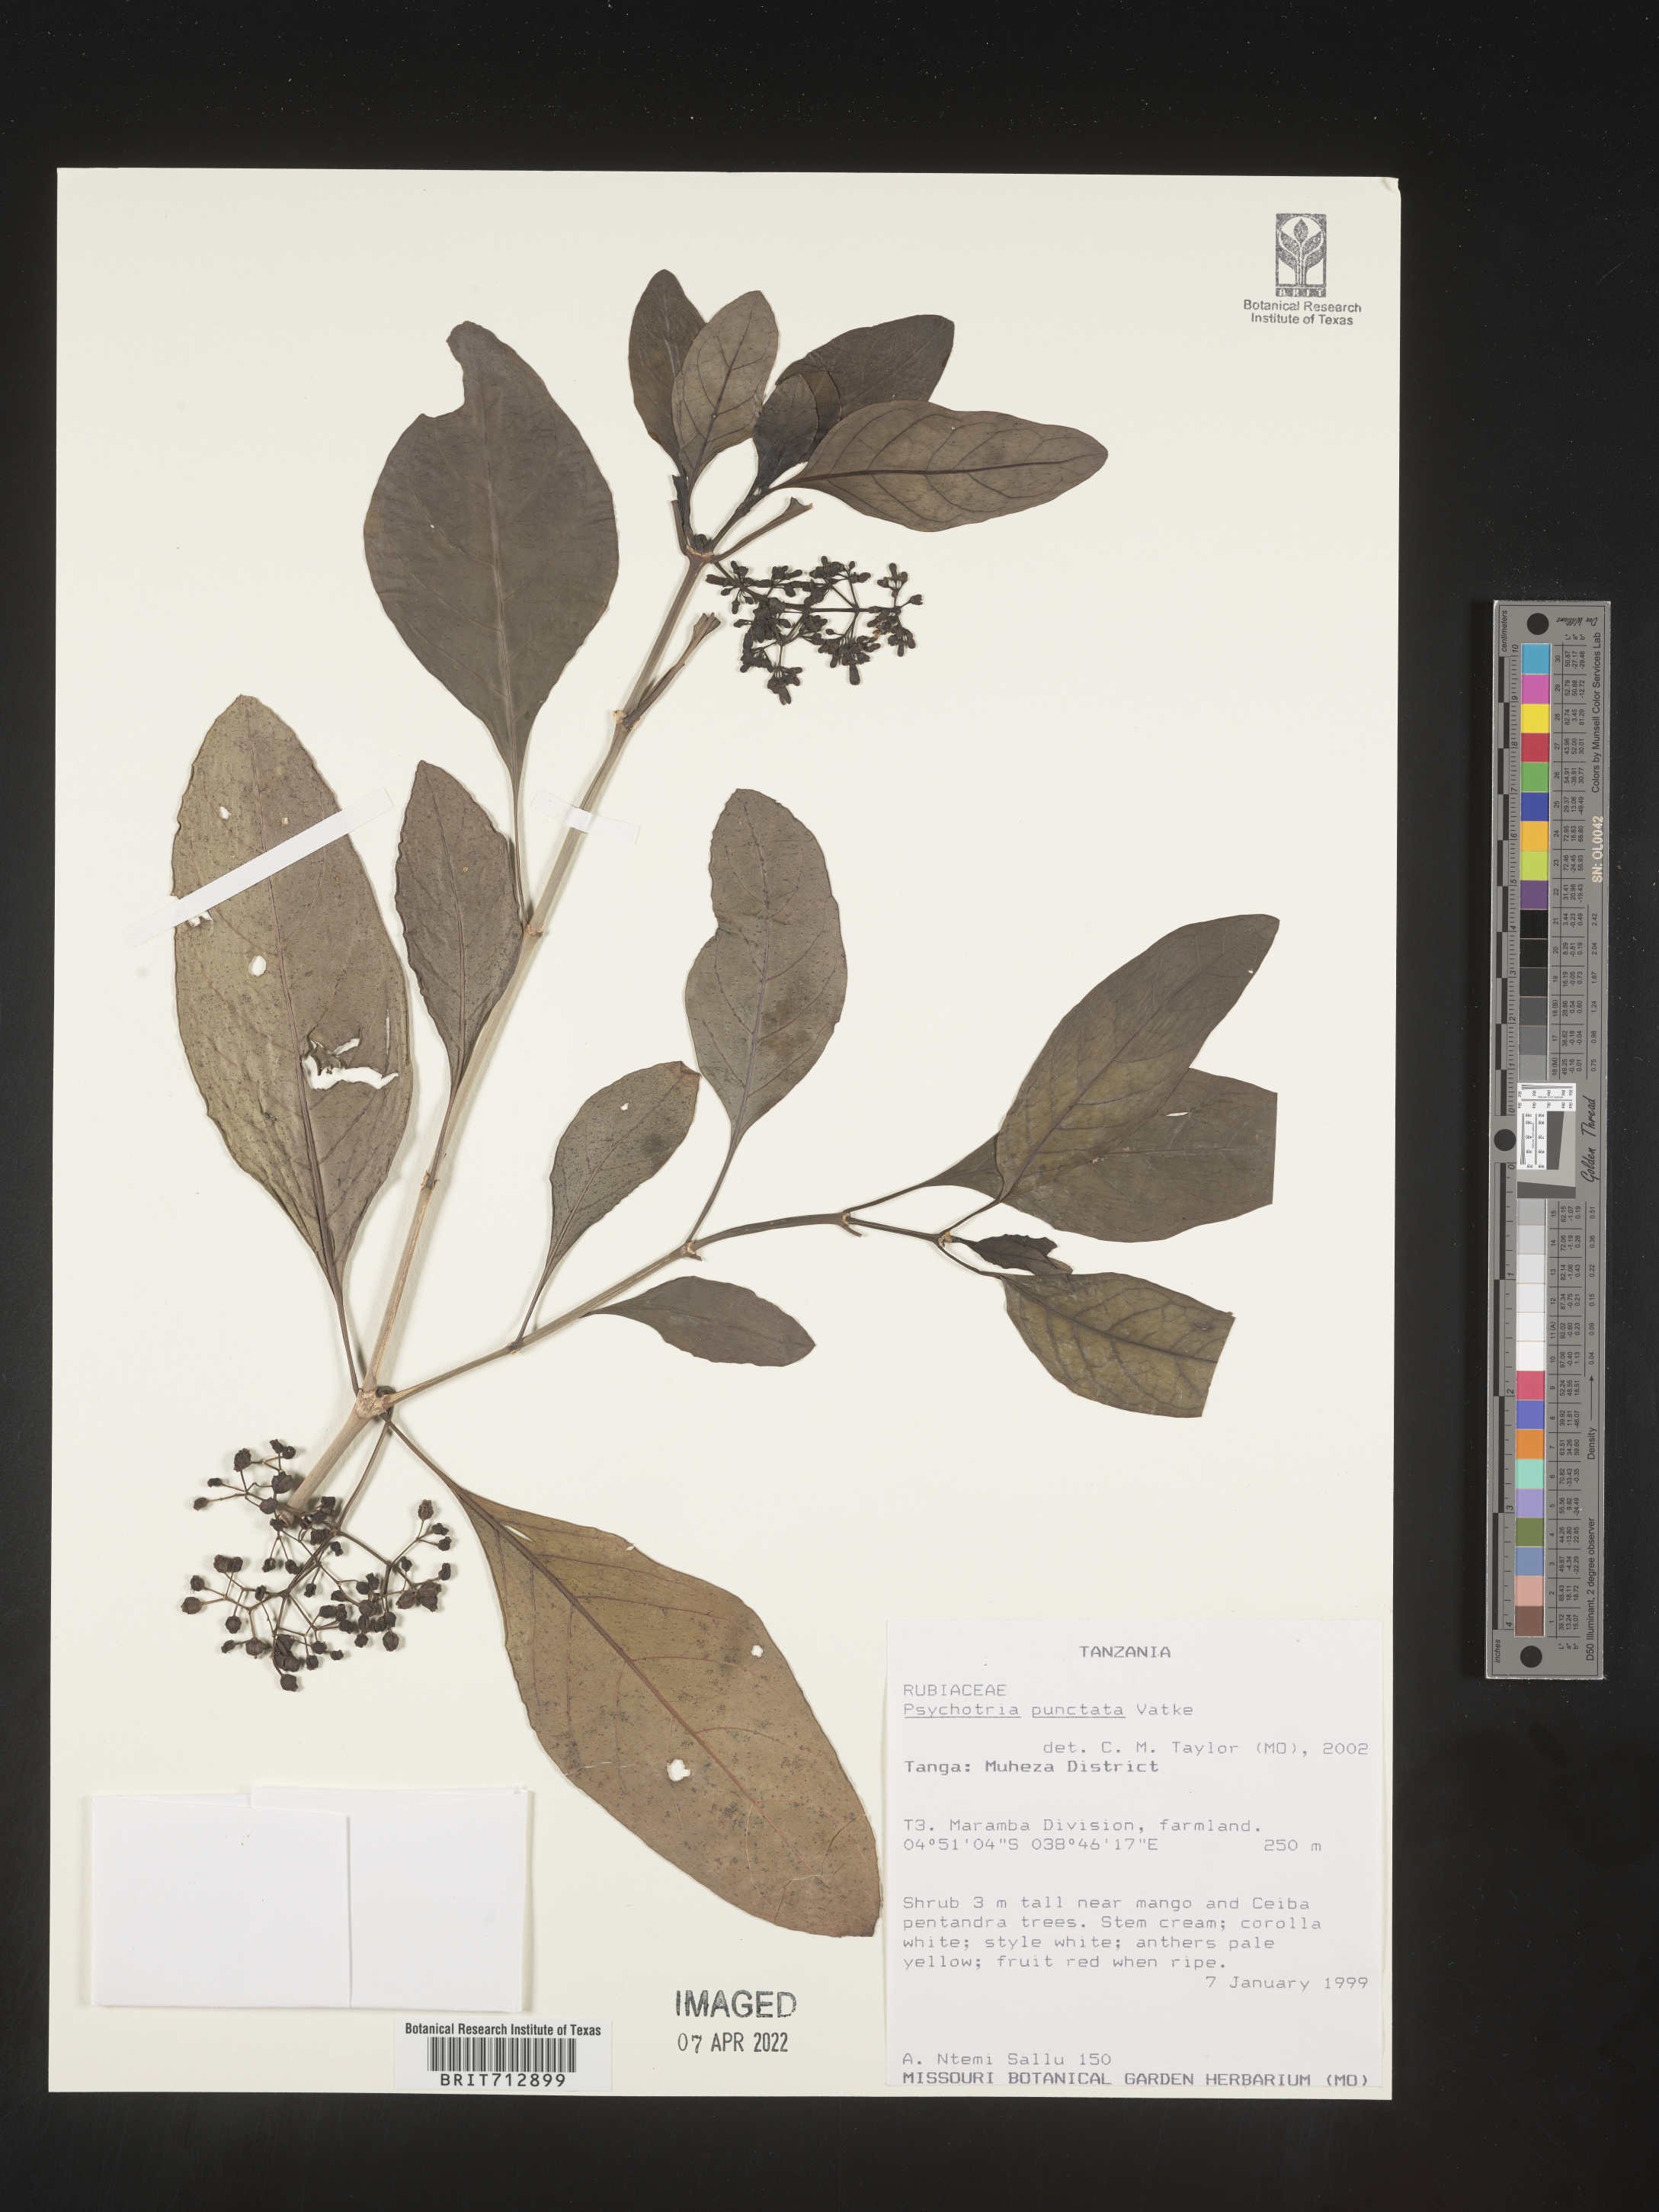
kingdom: Plantae
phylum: Tracheophyta
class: Magnoliopsida
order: Gentianales
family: Rubiaceae
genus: Psychotria
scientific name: Psychotria
